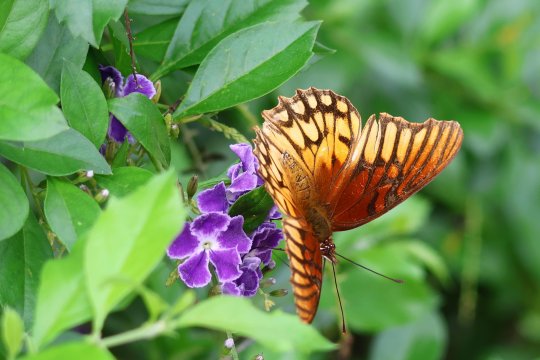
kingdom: Animalia
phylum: Arthropoda
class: Insecta
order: Lepidoptera
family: Nymphalidae
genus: Dione
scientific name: Dione moneta
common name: Mexican Silverspot
